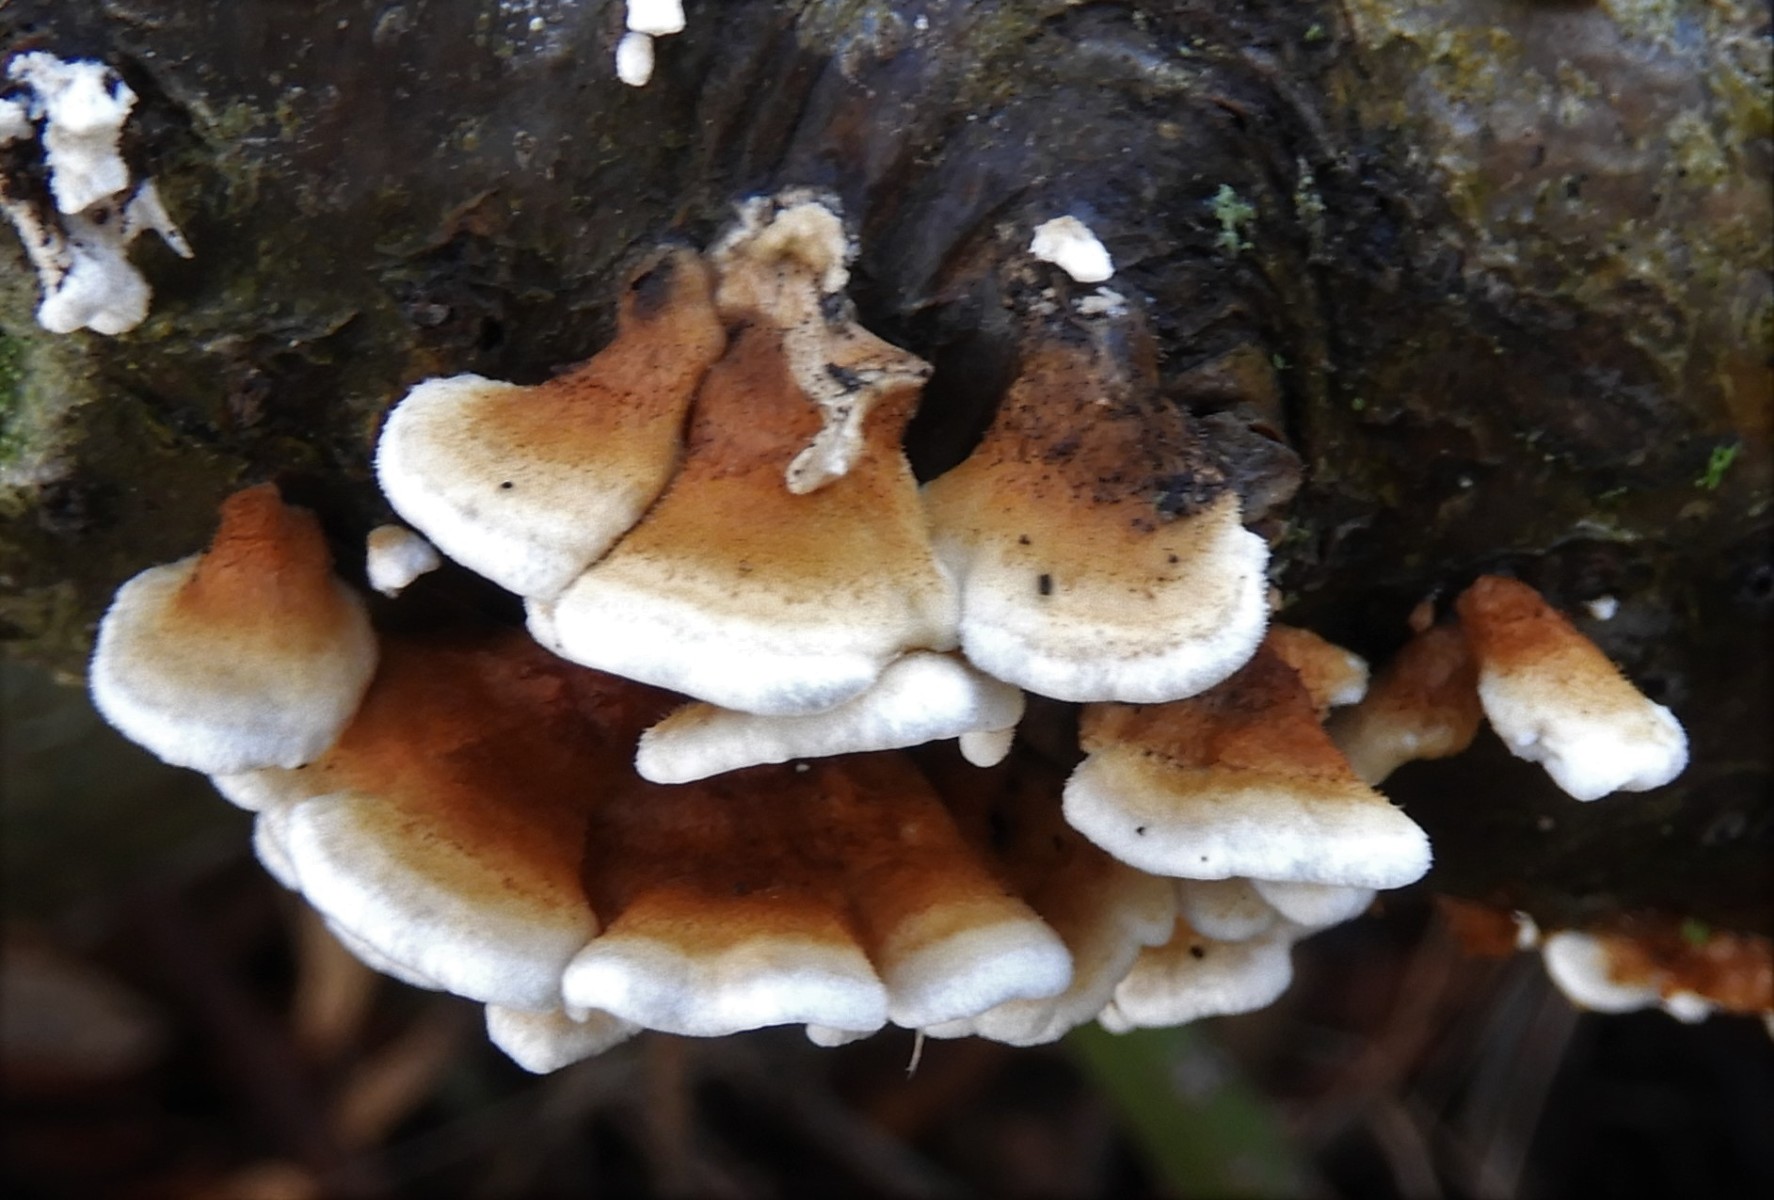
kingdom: Fungi
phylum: Basidiomycota
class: Agaricomycetes
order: Amylocorticiales
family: Amylocorticiaceae
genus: Plicaturopsis
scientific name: Plicaturopsis crispa
